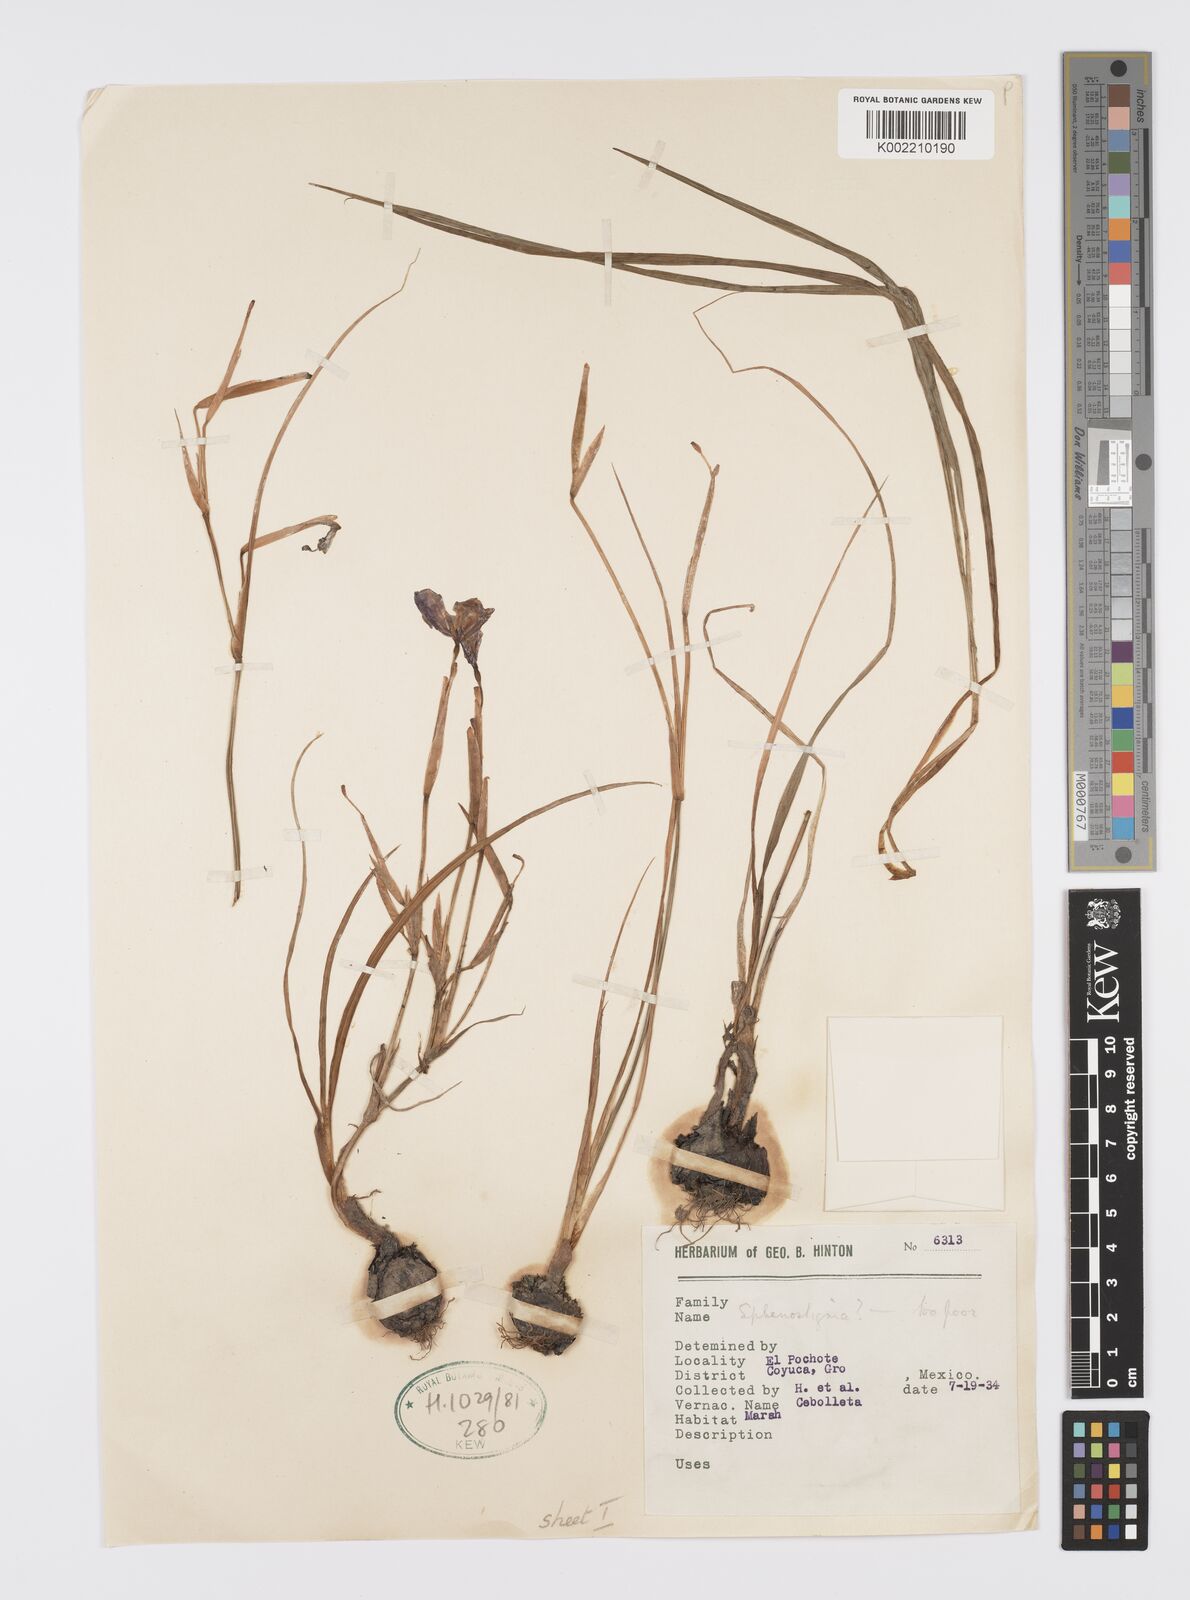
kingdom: Plantae
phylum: Tracheophyta
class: Liliopsida
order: Asparagales
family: Iridaceae
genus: Gelasine
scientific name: Gelasine
